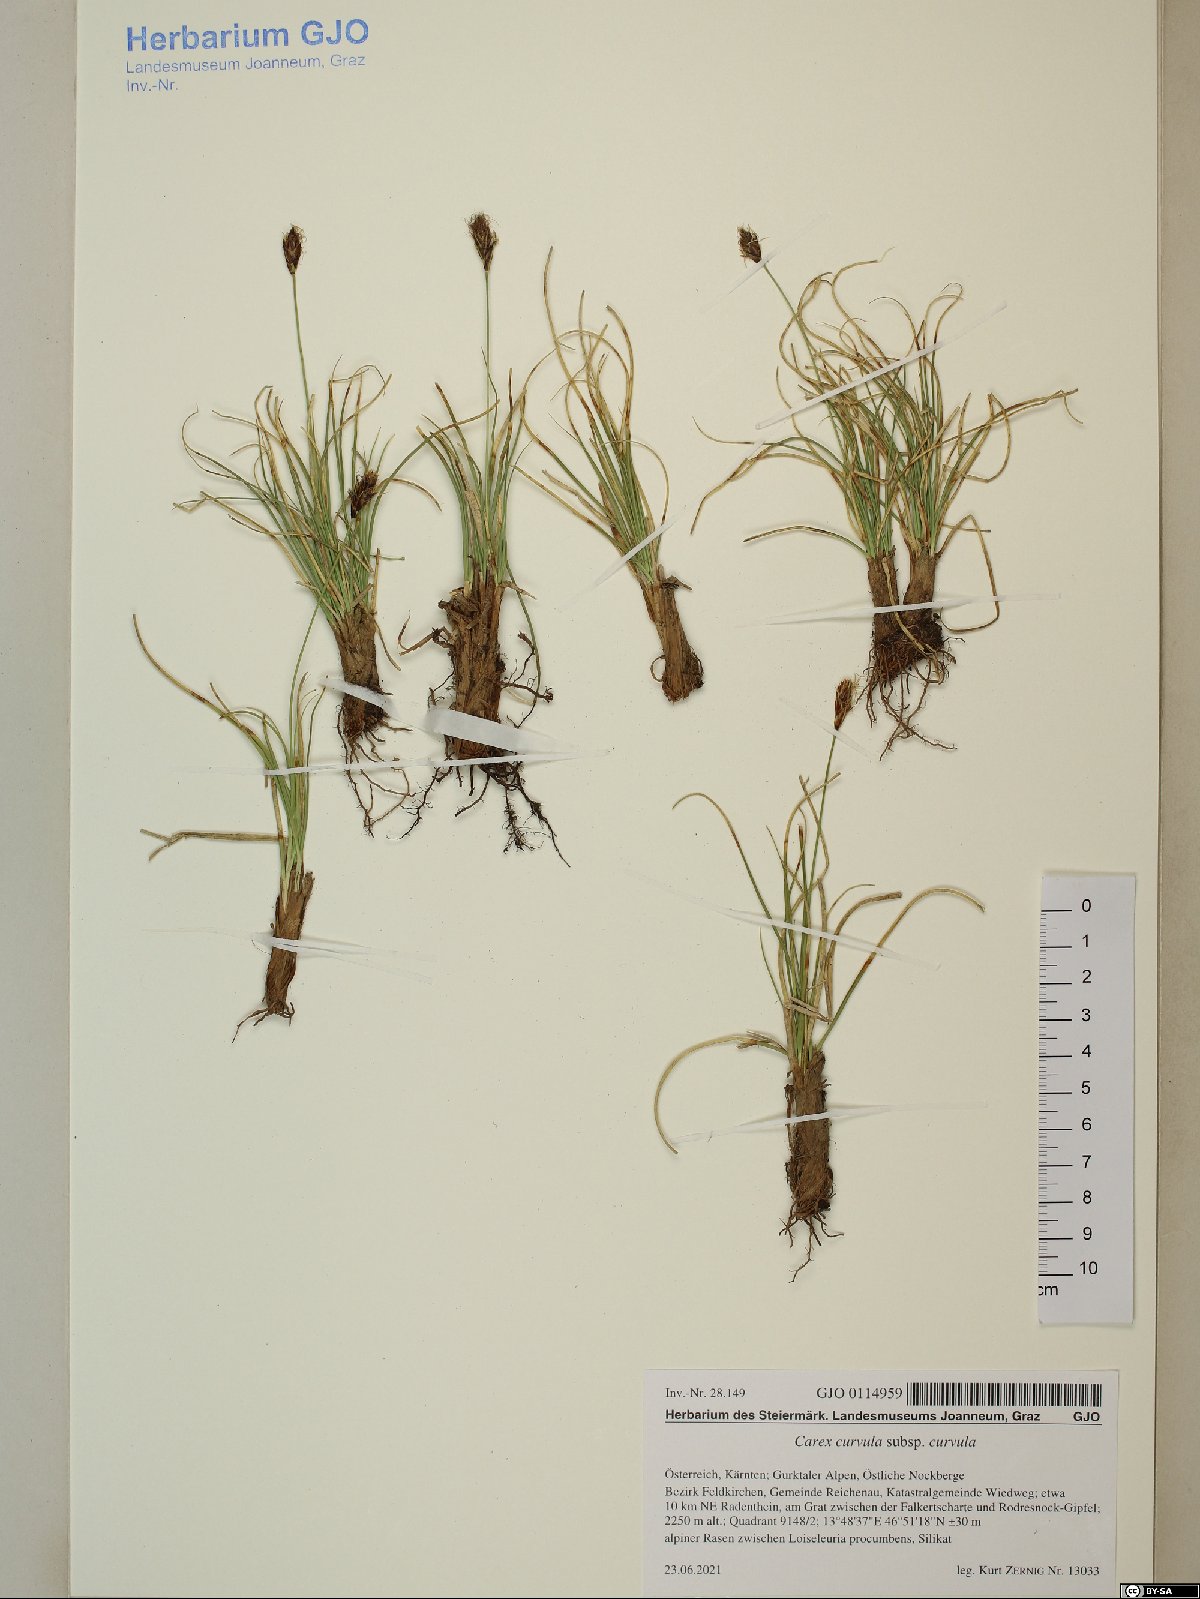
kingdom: Plantae
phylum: Tracheophyta
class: Liliopsida
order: Poales
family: Cyperaceae
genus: Carex
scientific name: Carex curvula
